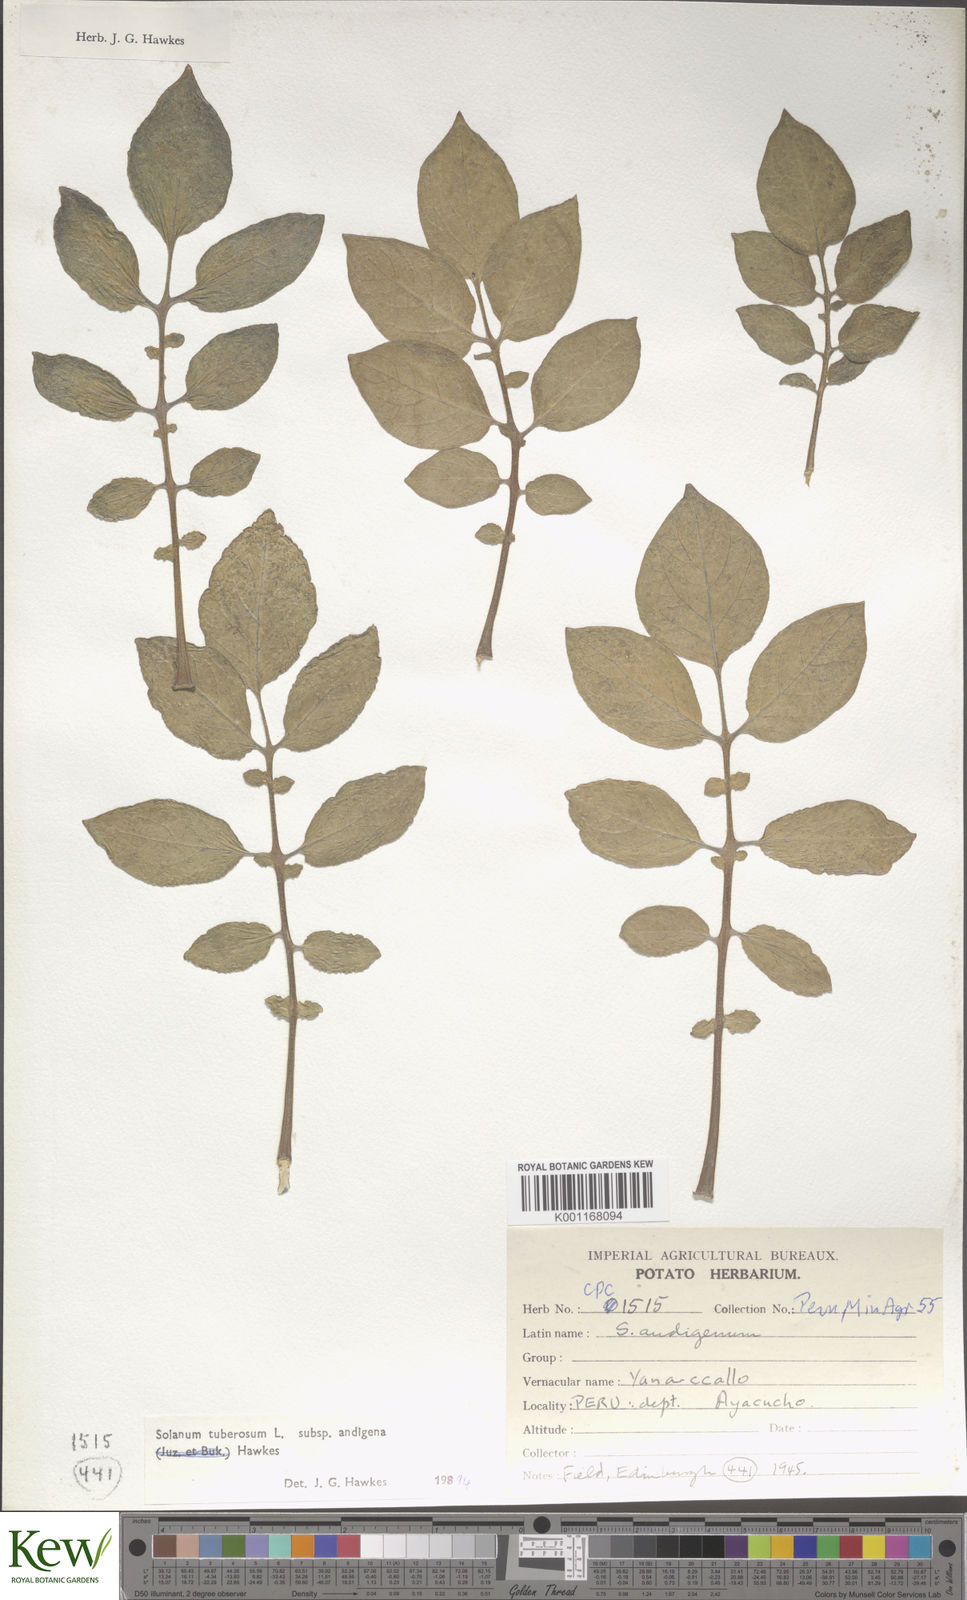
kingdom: Plantae
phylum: Tracheophyta
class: Magnoliopsida
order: Solanales
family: Solanaceae
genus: Solanum
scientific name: Solanum tuberosum
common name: Potato
